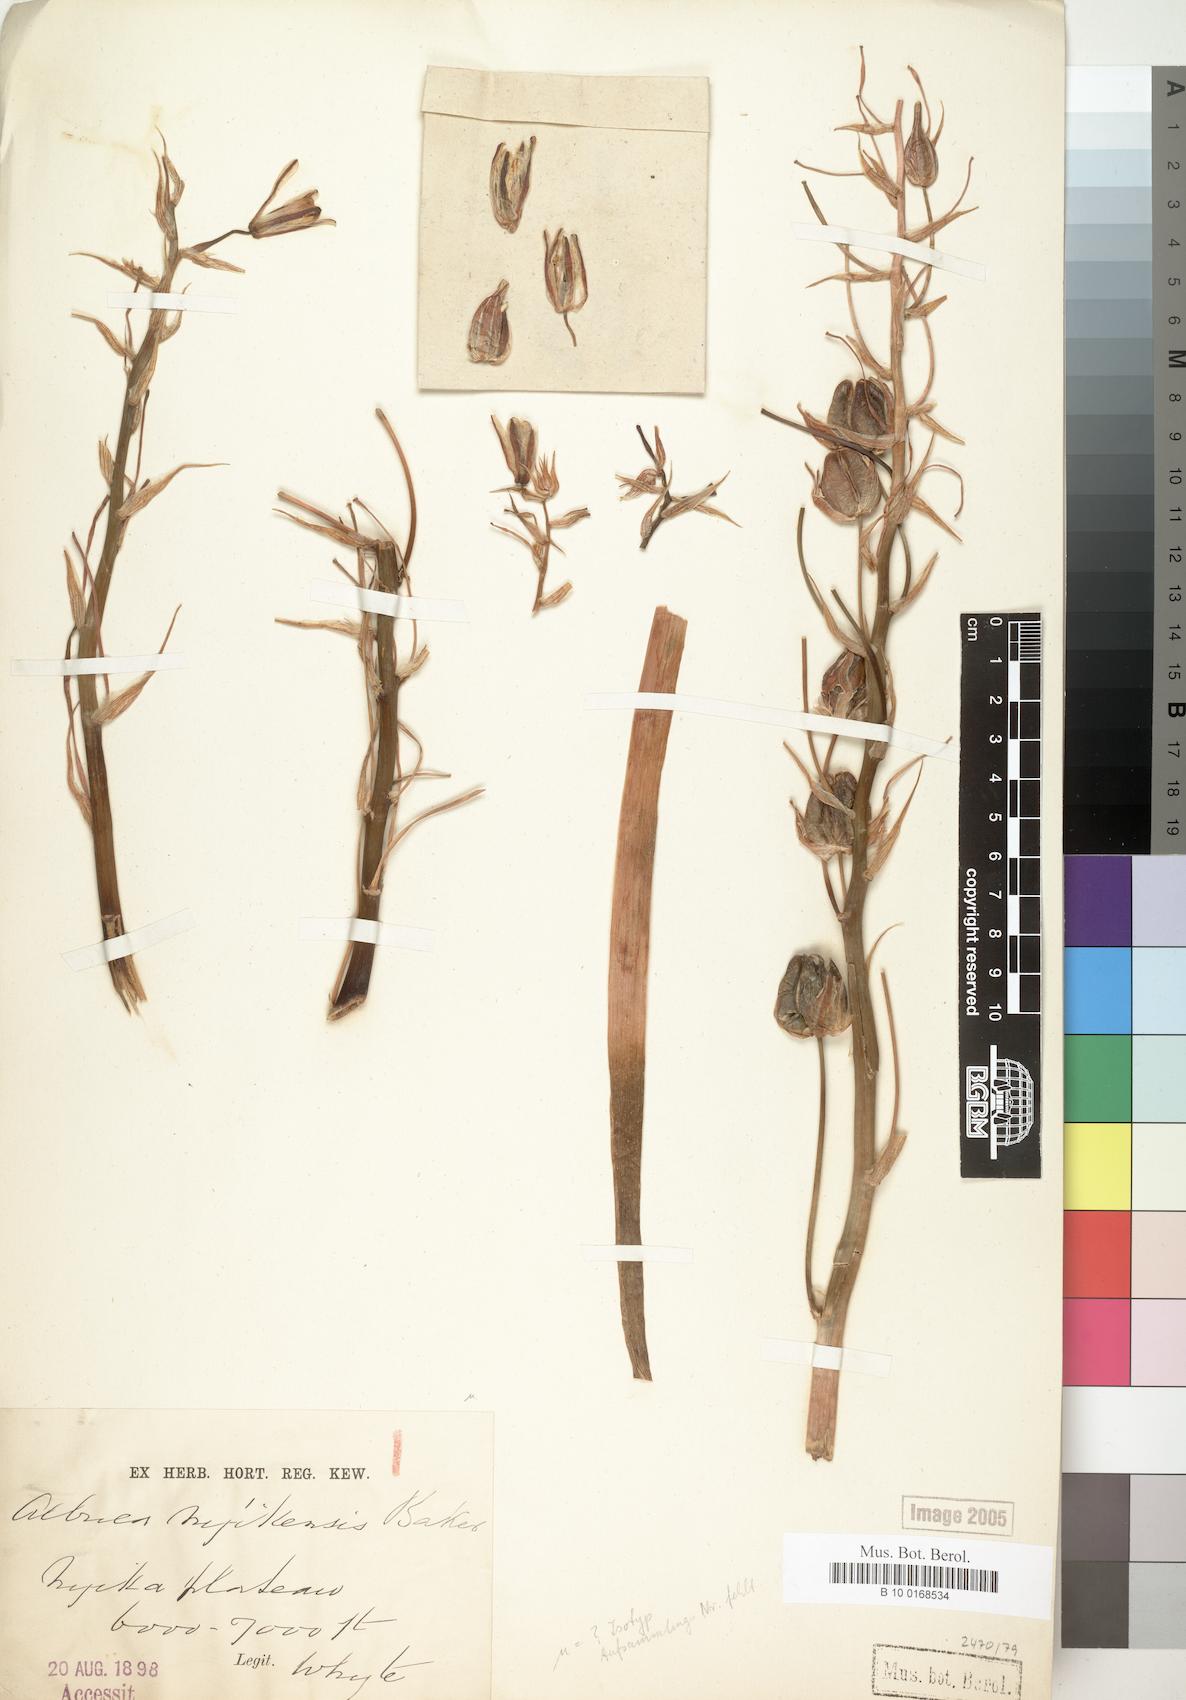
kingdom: Plantae
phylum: Tracheophyta
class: Liliopsida
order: Asparagales
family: Asparagaceae
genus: Albuca
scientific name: Albuca kirkii
